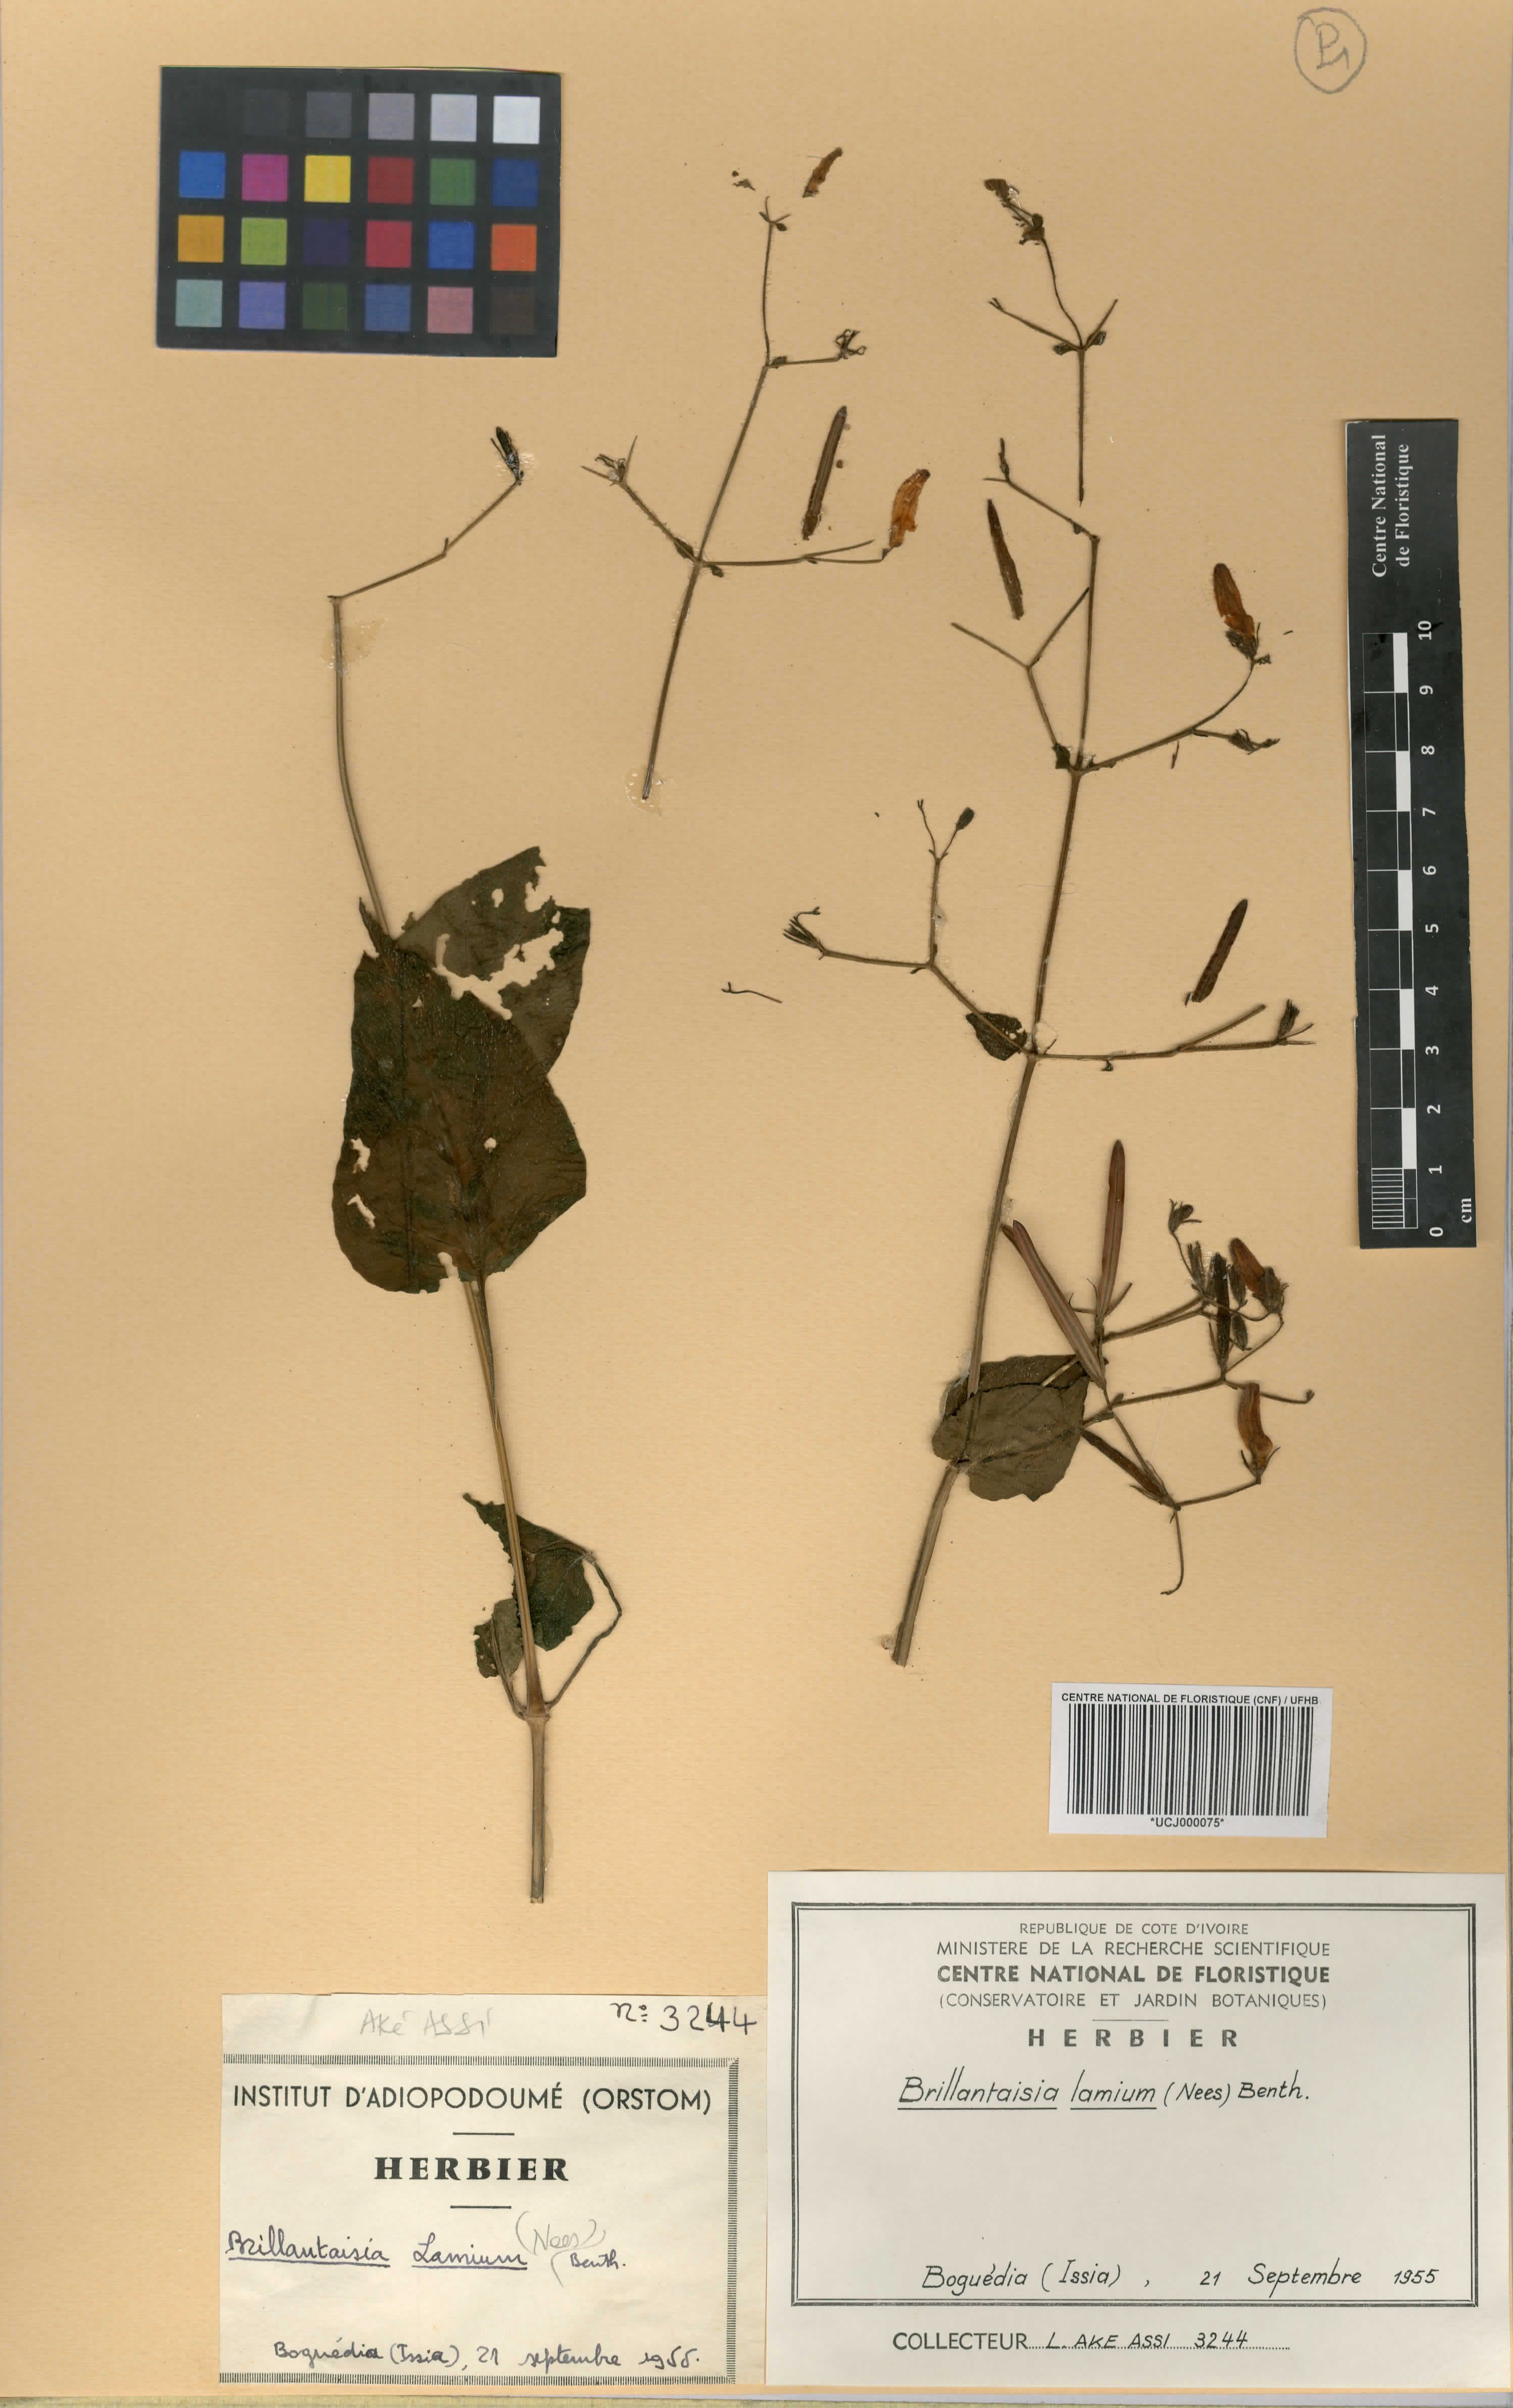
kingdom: Plantae
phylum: Tracheophyta
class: Magnoliopsida
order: Lamiales
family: Acanthaceae
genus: Brillantaisia
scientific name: Brillantaisia lamium
